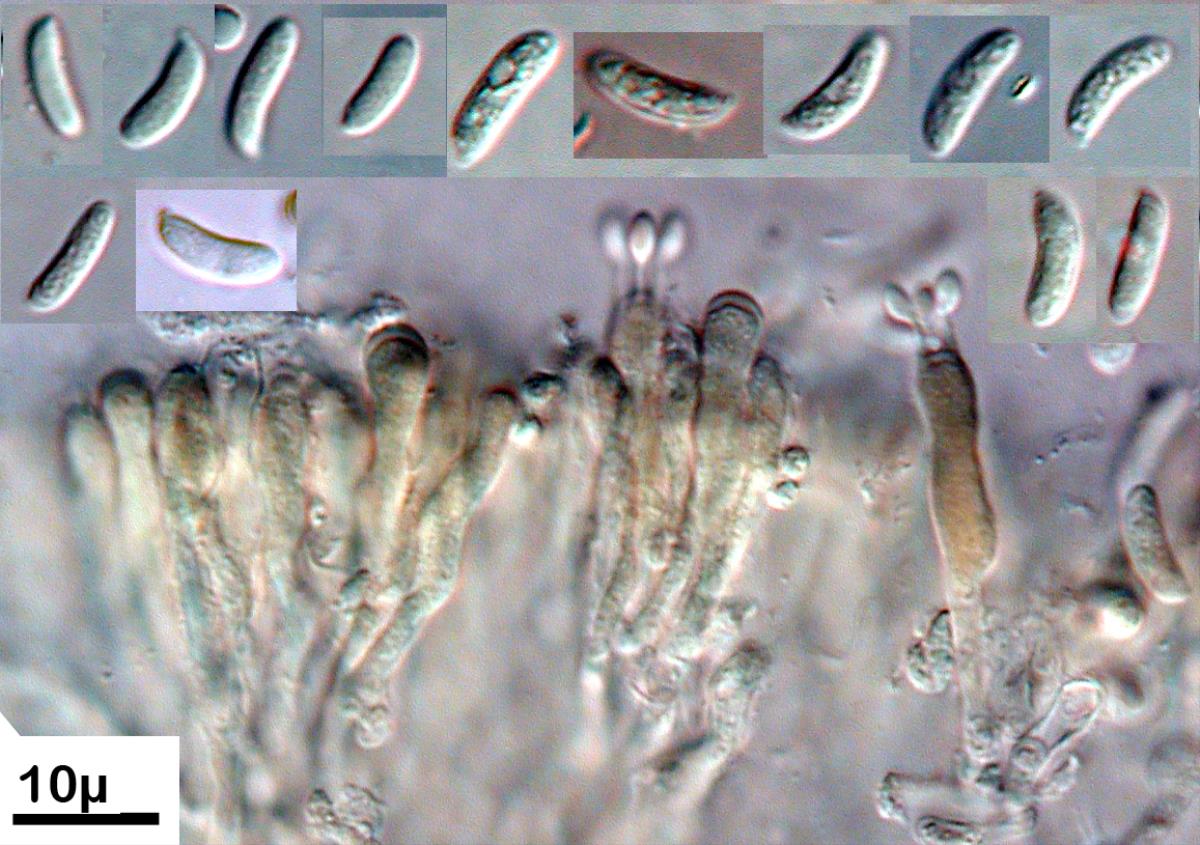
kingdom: Fungi
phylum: Basidiomycota
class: Agaricomycetes
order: Agaricales
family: Schizophyllaceae
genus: Schizophyllum
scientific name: Schizophyllum amplum
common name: Poplar bells
